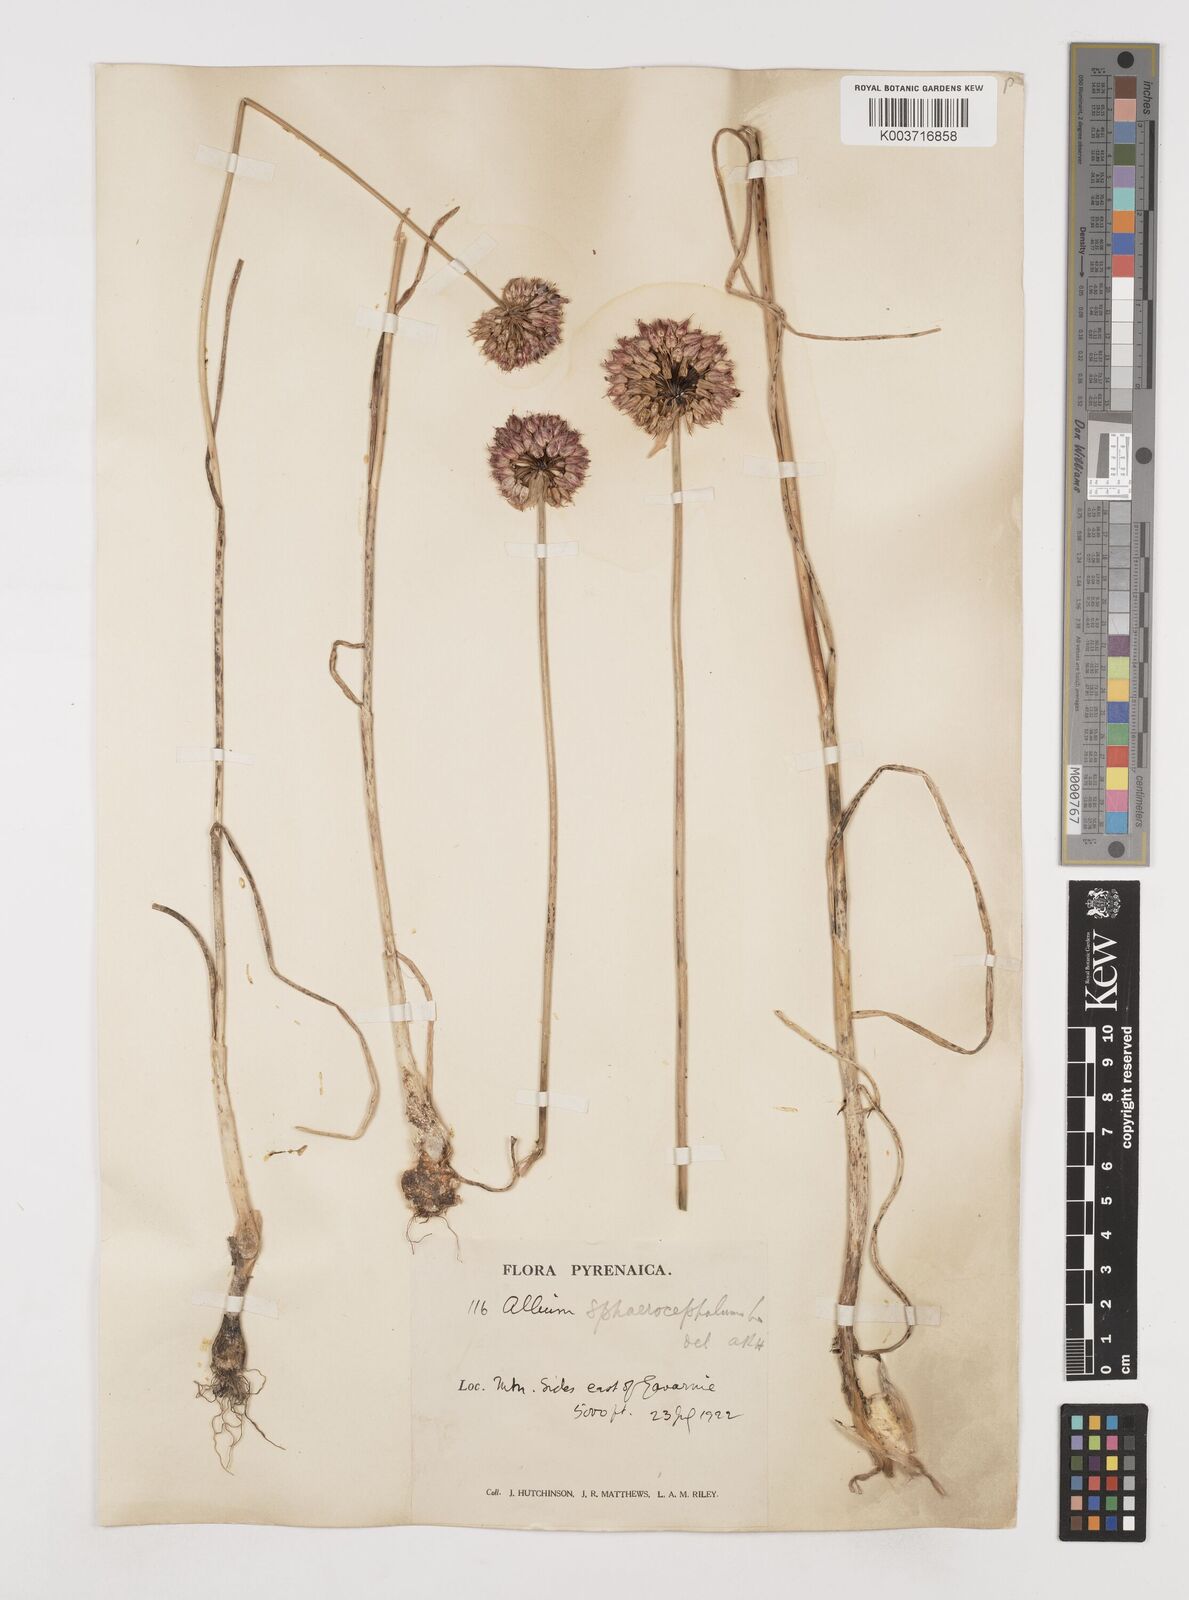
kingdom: Plantae
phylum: Tracheophyta
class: Liliopsida
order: Asparagales
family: Amaryllidaceae
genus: Allium
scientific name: Allium sphaerocephalon
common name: Round-headed leek
